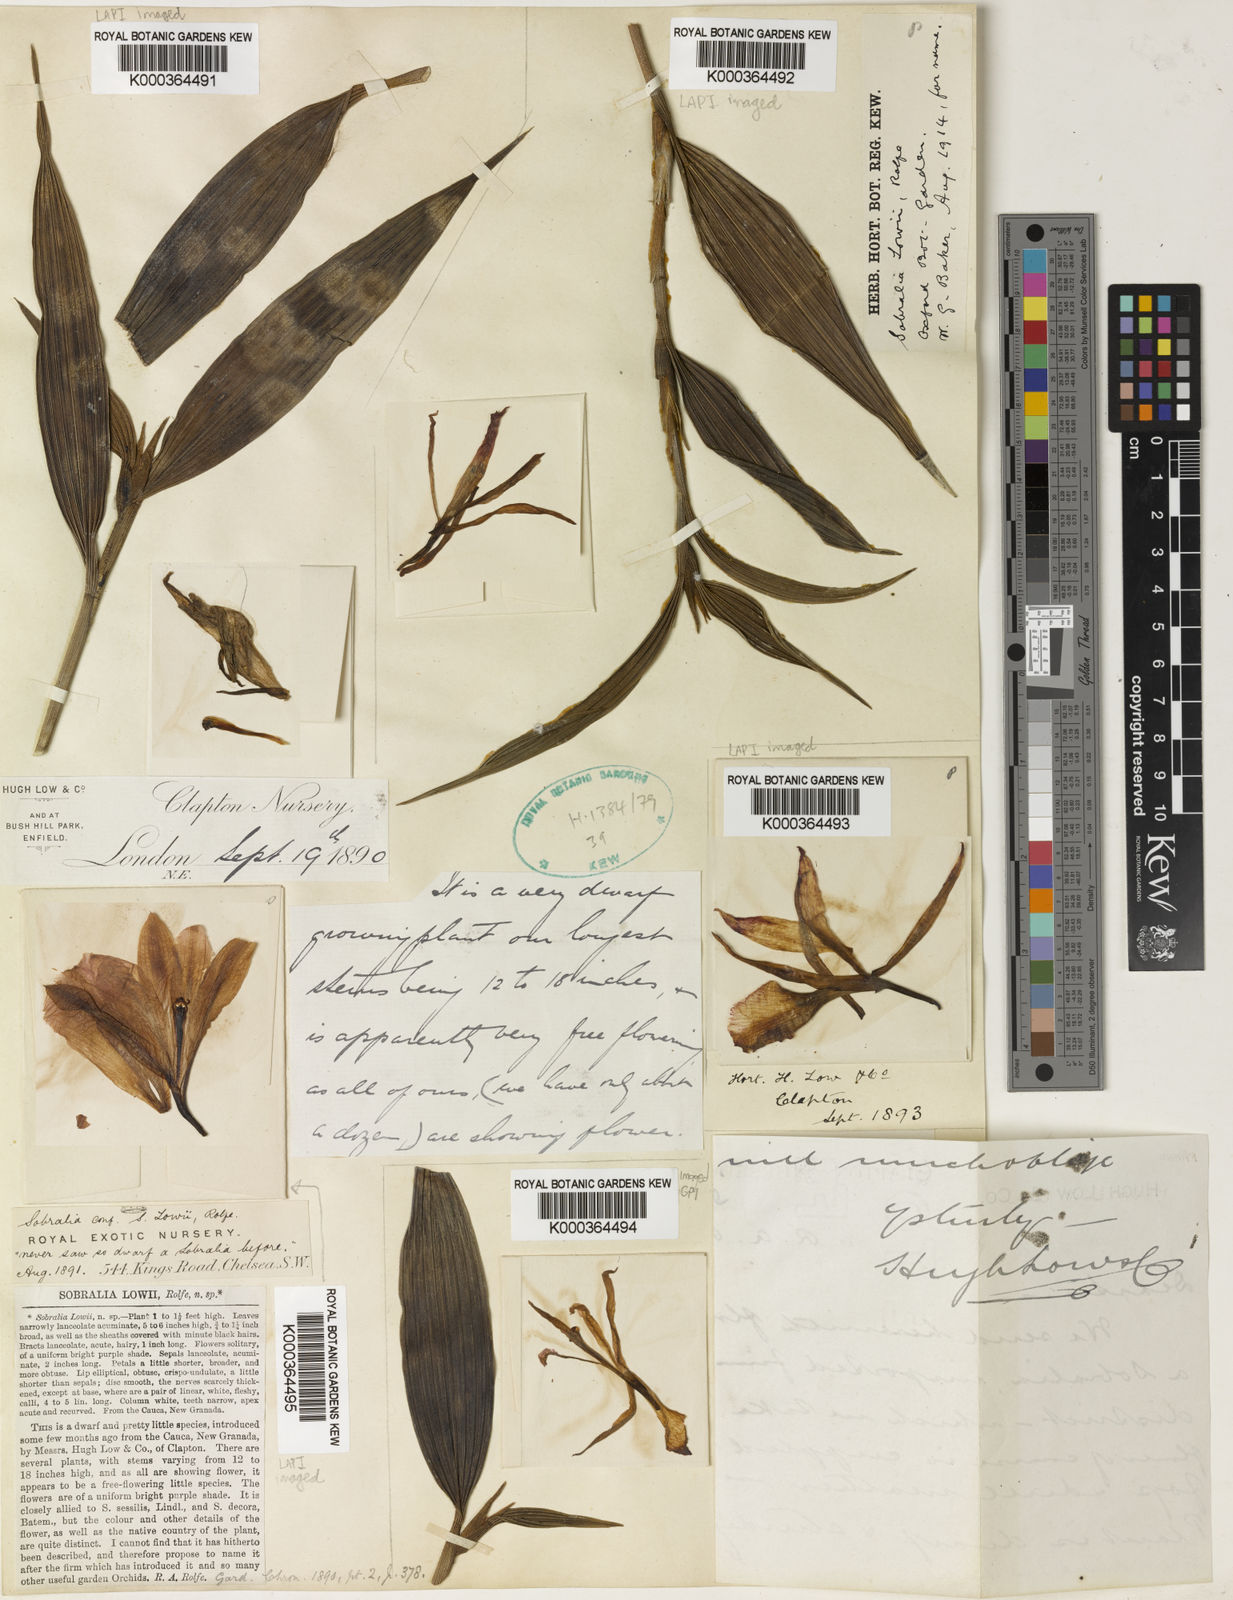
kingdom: Plantae
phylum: Tracheophyta
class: Liliopsida
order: Asparagales
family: Orchidaceae
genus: Sobralia
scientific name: Sobralia lowii
